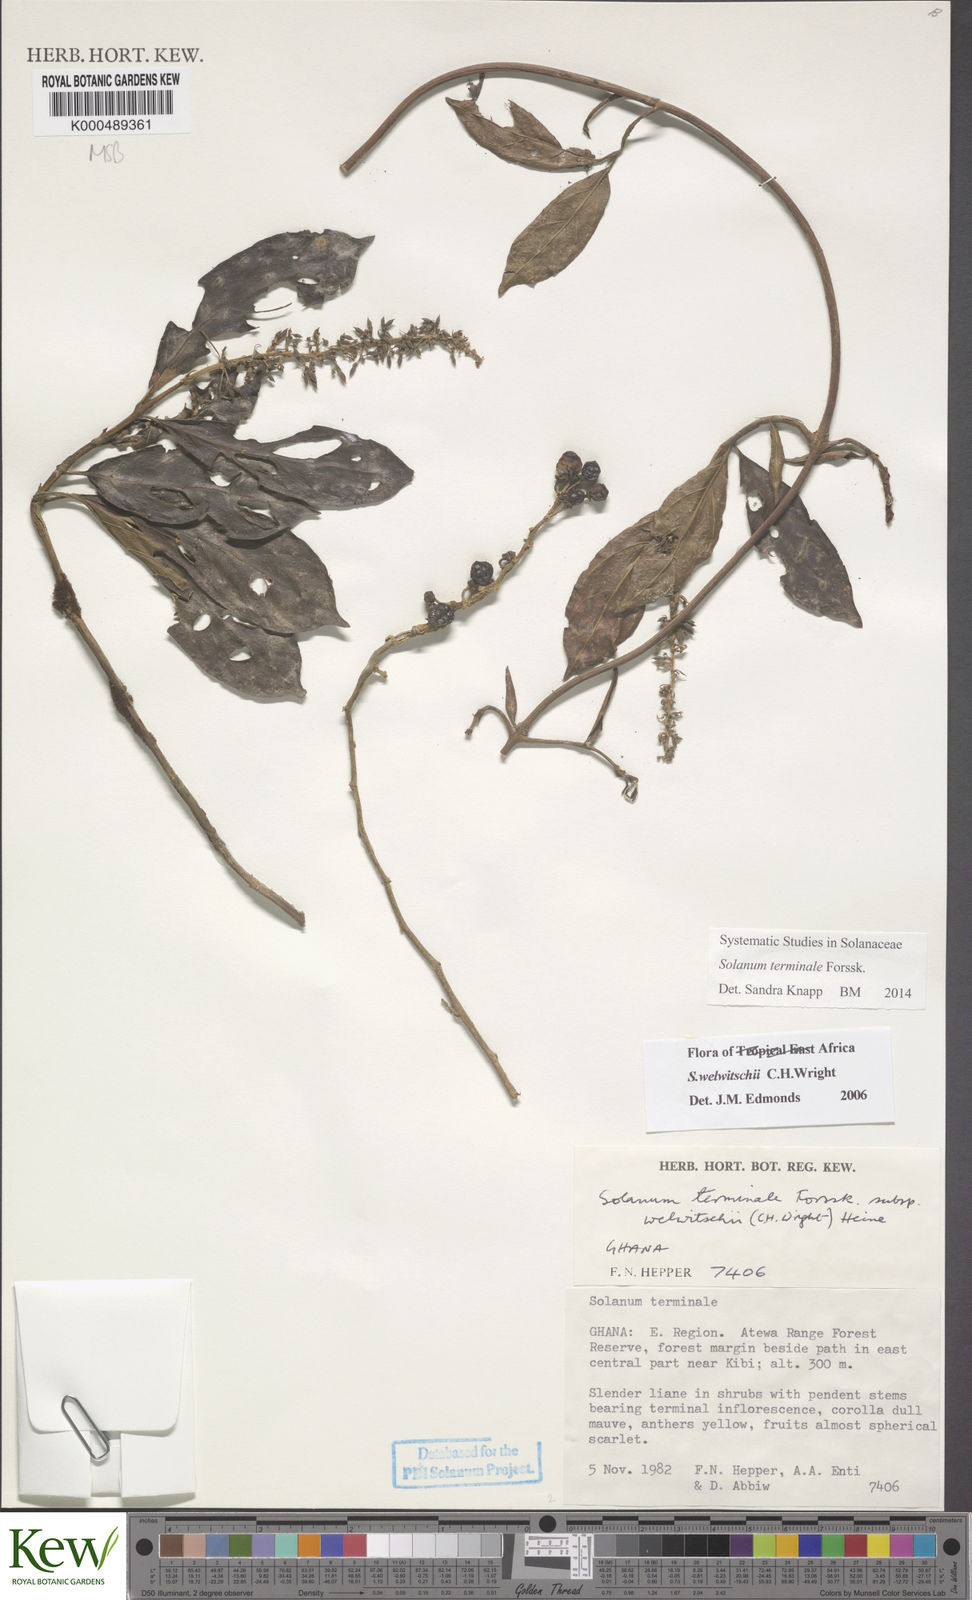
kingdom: Plantae
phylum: Tracheophyta
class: Magnoliopsida
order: Solanales
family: Solanaceae
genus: Solanum
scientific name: Solanum terminale
